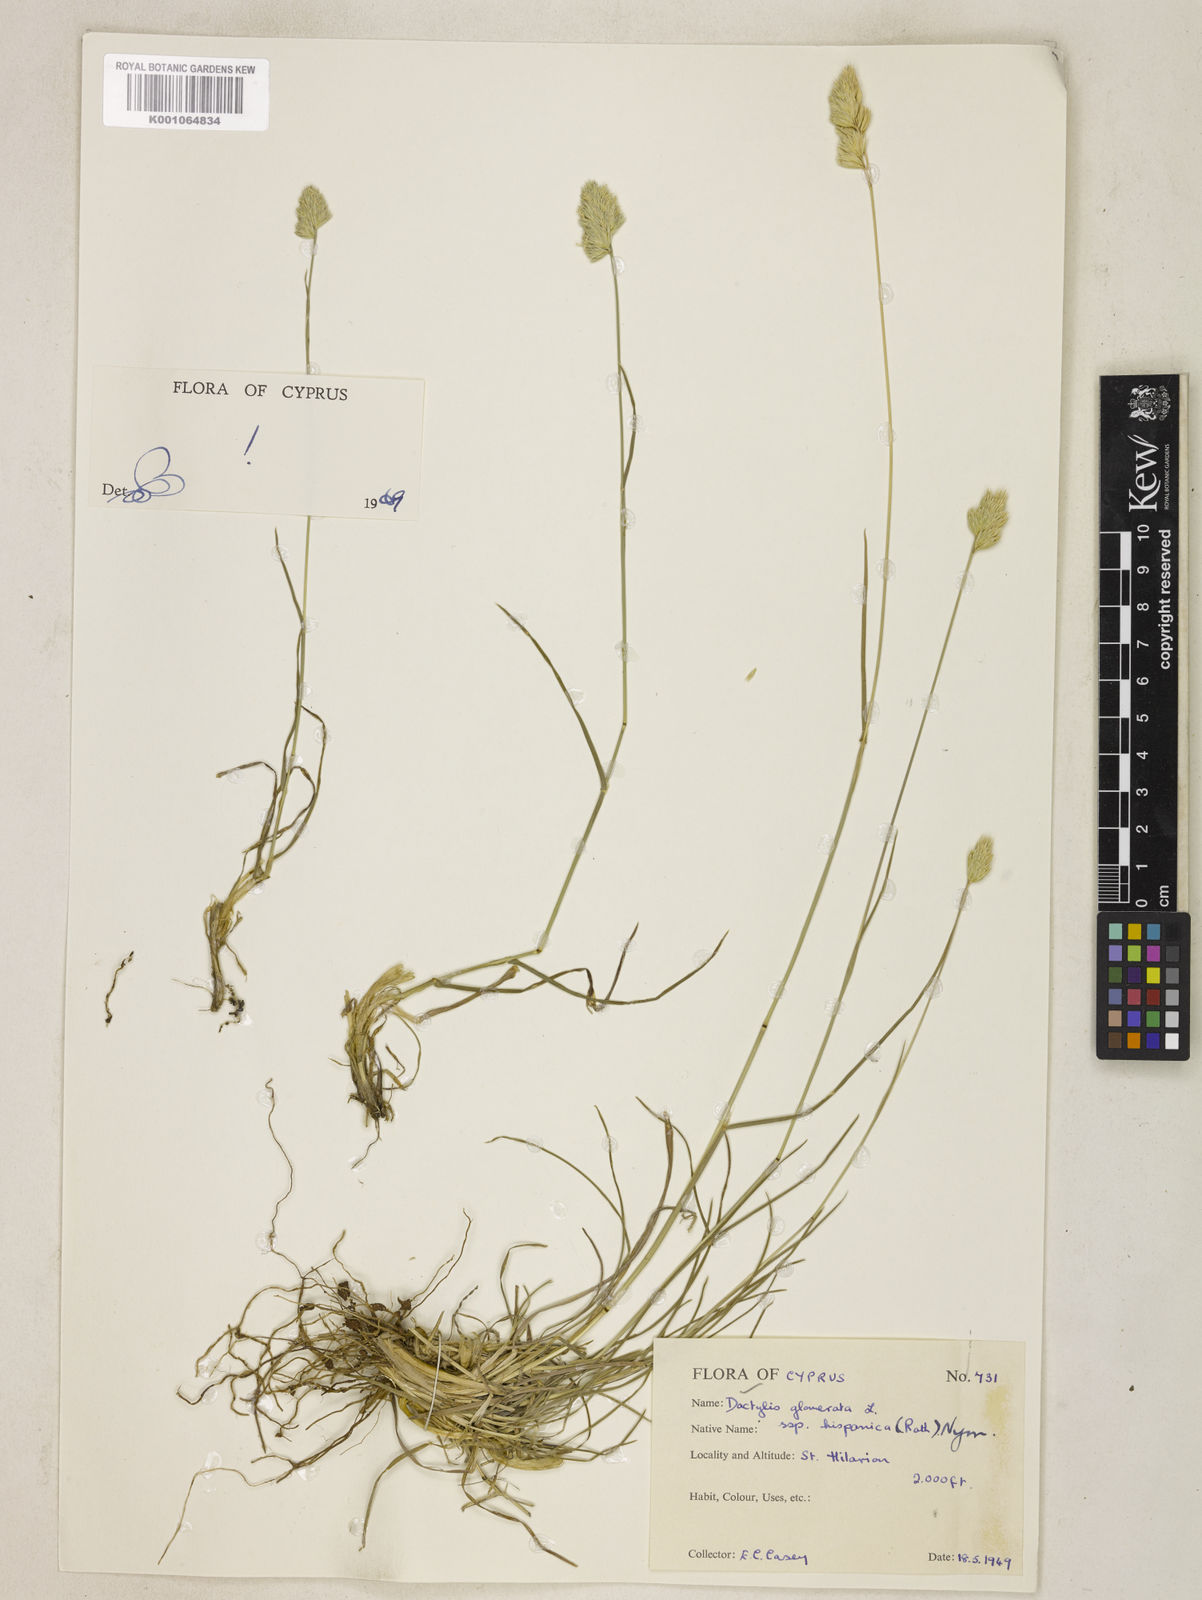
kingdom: Plantae
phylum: Tracheophyta
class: Liliopsida
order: Poales
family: Poaceae
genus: Dactylis
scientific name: Dactylis glomerata
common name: Orchardgrass
